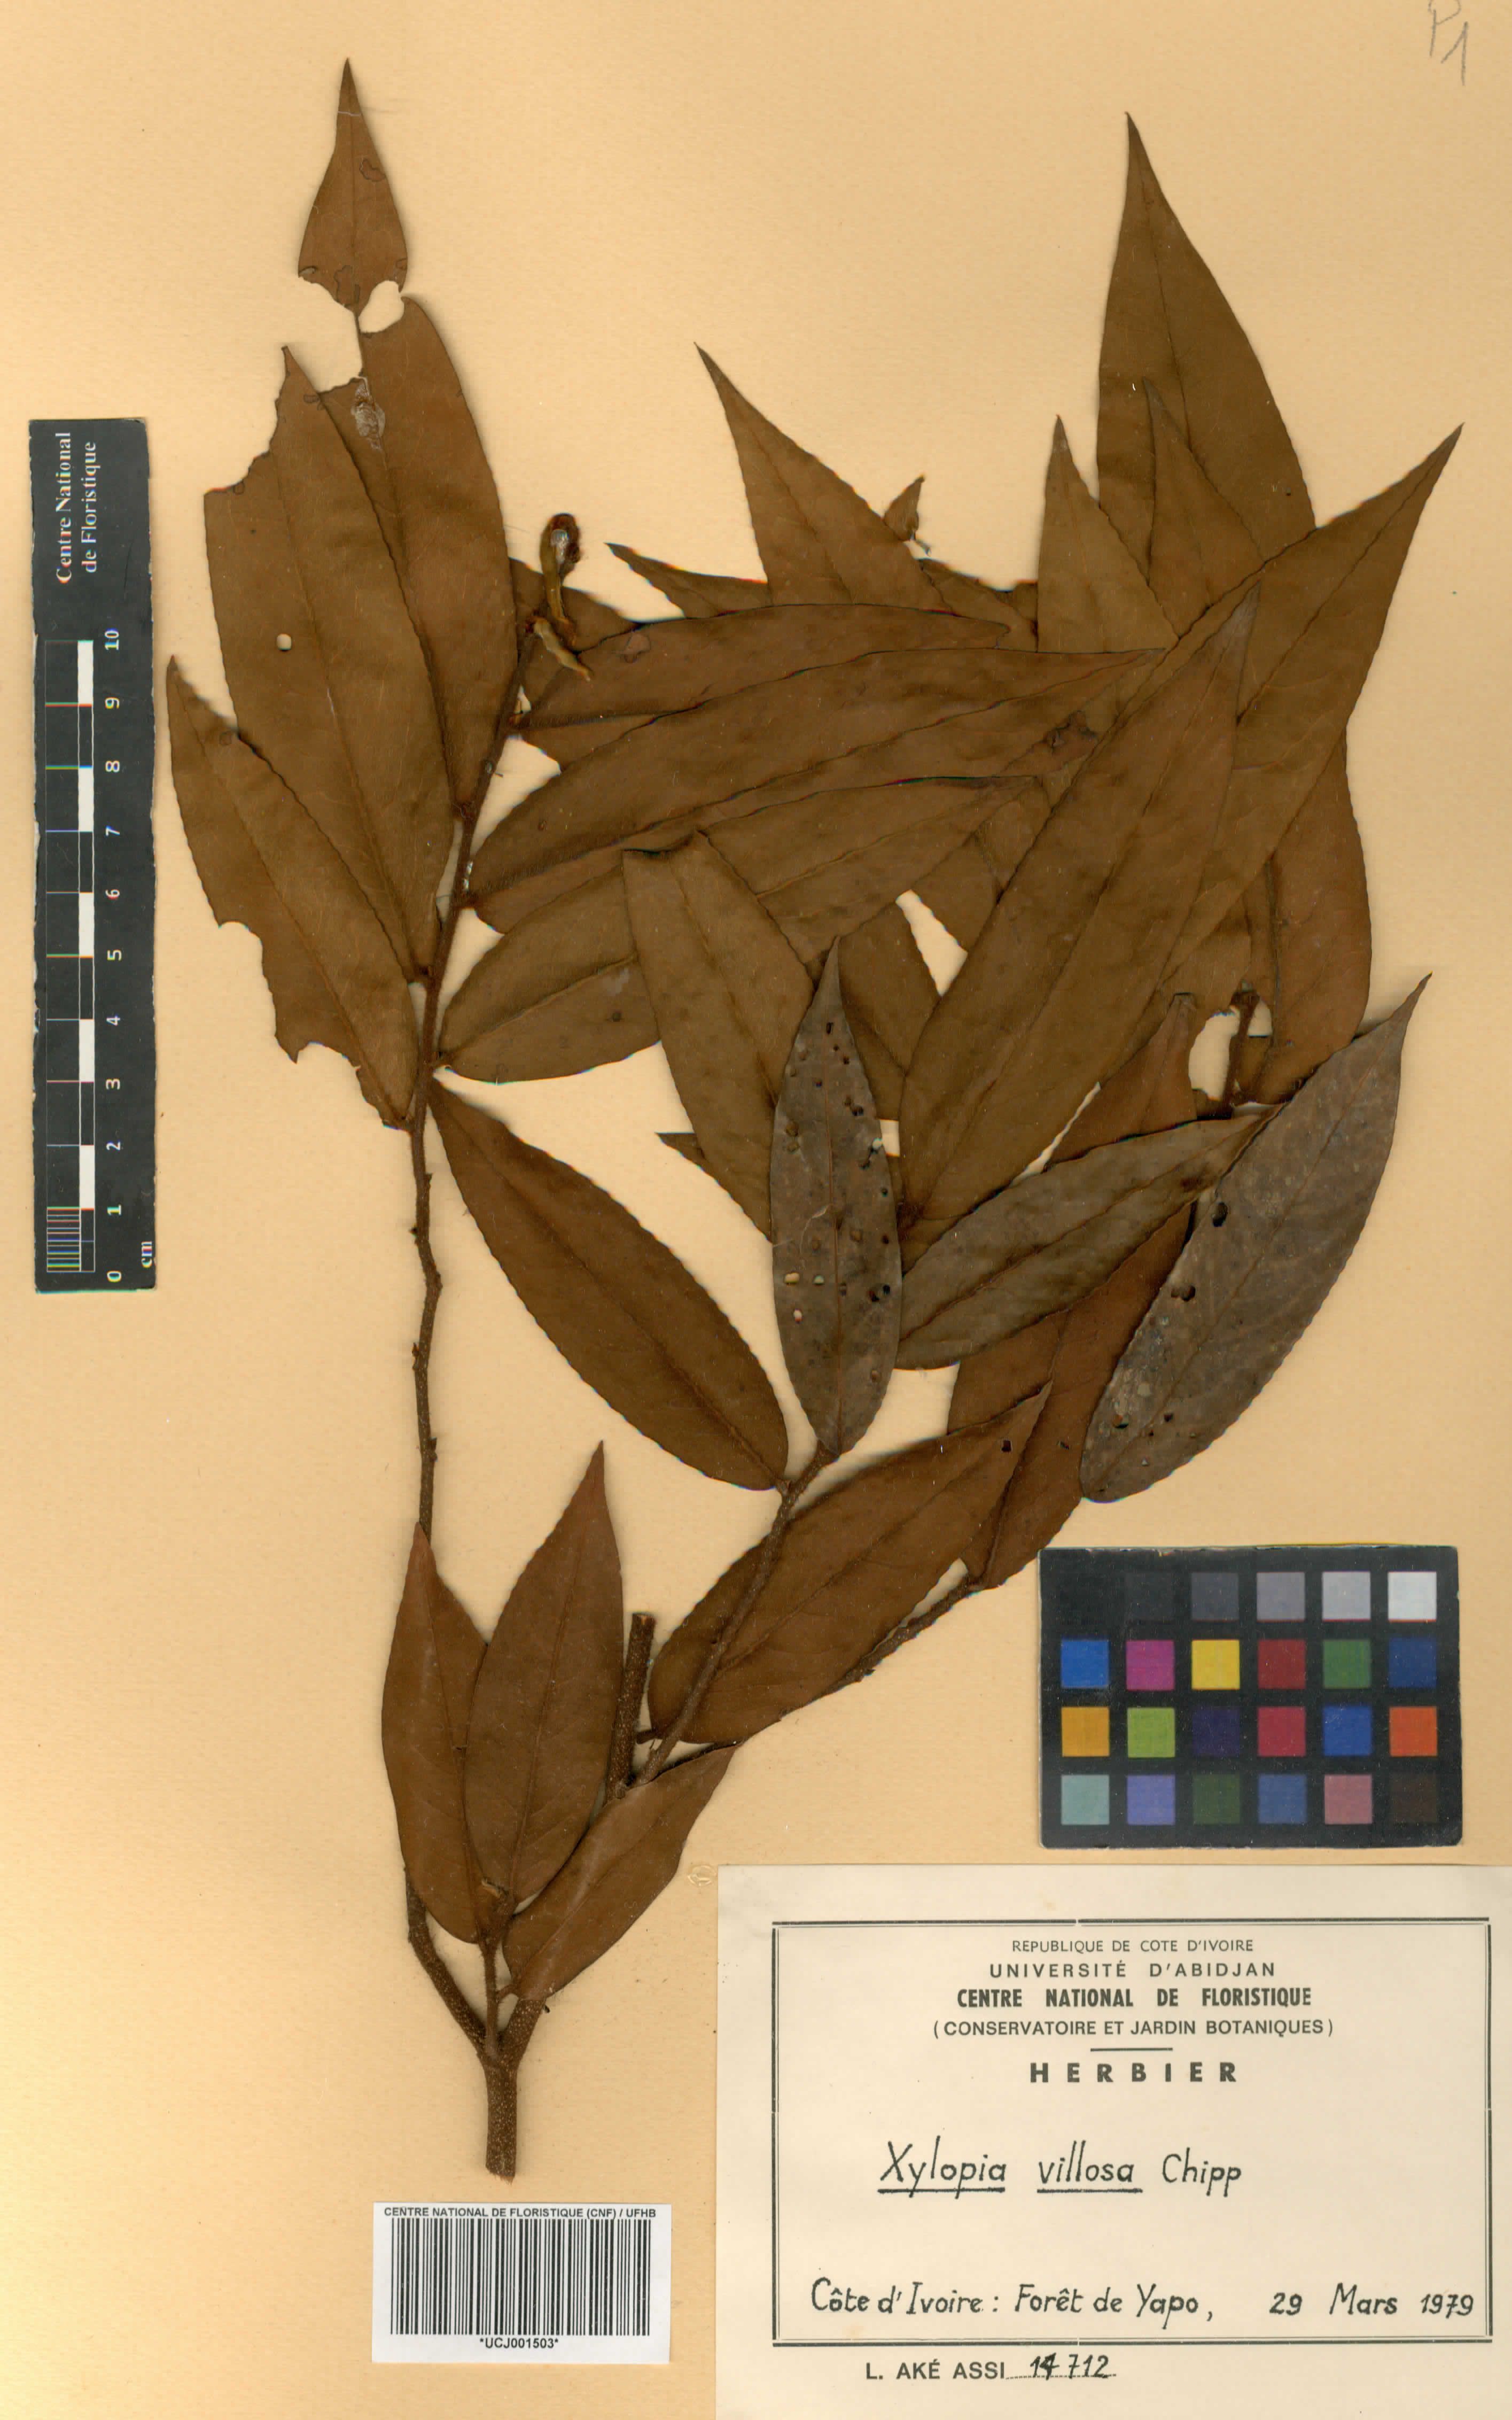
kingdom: Plantae
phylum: Tracheophyta
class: Magnoliopsida
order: Magnoliales
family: Annonaceae
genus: Xylopia
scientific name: Xylopia villosa
